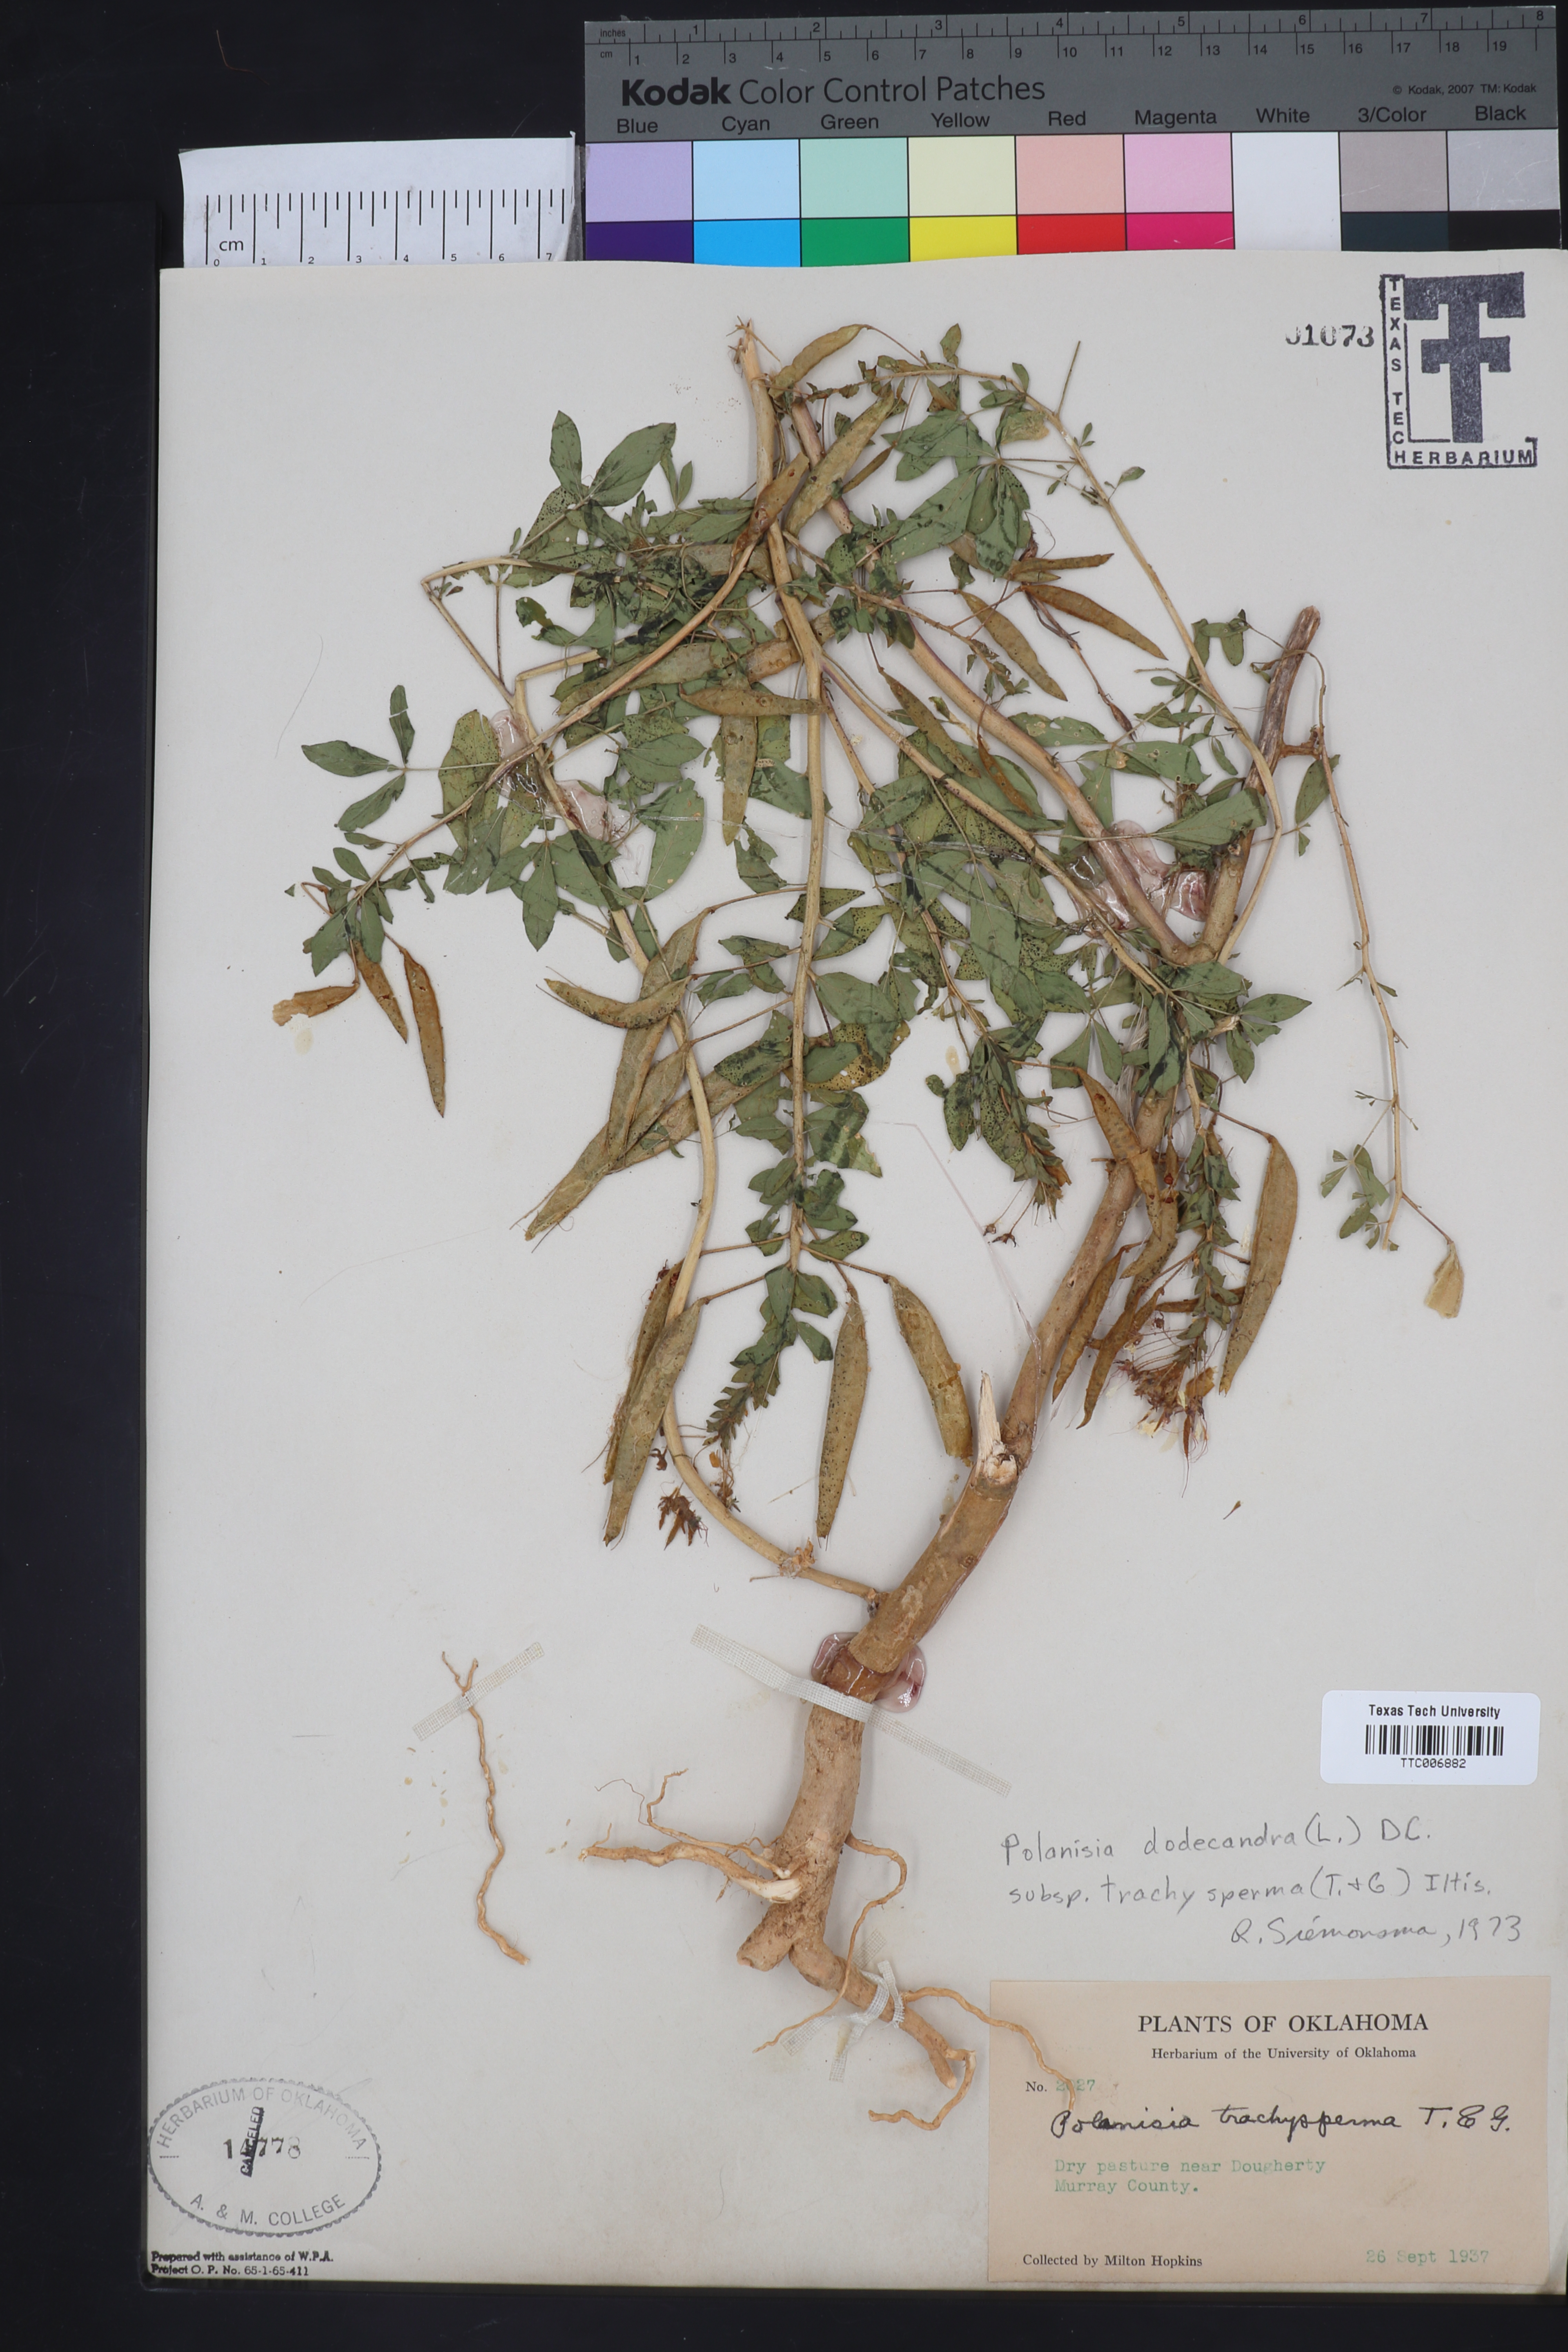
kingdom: Plantae
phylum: Tracheophyta
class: Magnoliopsida
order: Brassicales
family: Cleomaceae
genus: Polanisia
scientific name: Polanisia trachysperma
